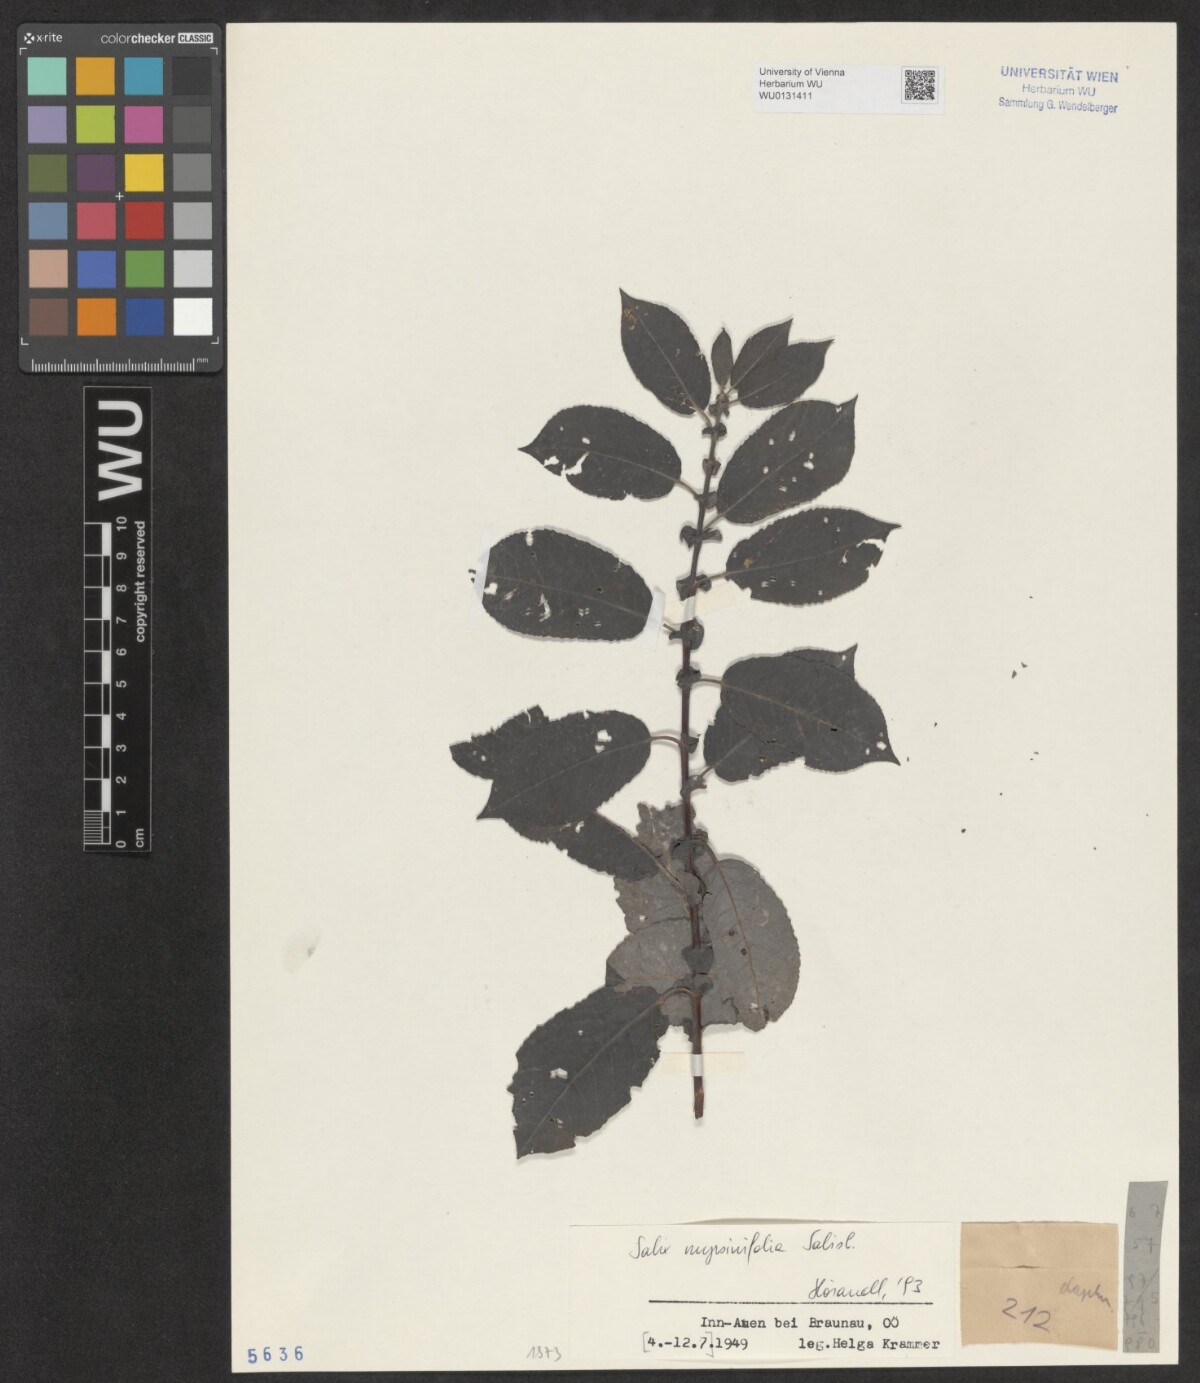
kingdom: Plantae
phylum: Tracheophyta
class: Magnoliopsida
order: Malpighiales
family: Salicaceae
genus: Salix
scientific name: Salix myrsinifolia
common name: Dark-leaved willow
